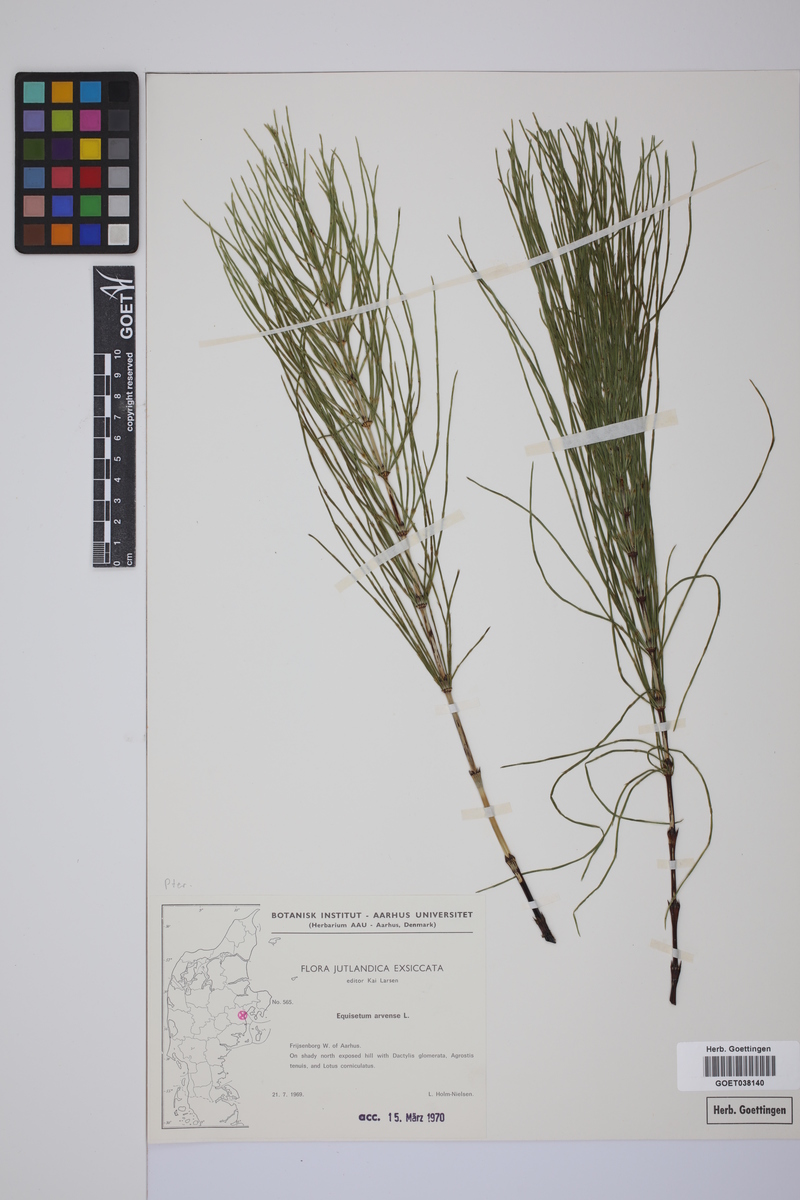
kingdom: Plantae
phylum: Tracheophyta
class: Polypodiopsida
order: Equisetales
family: Equisetaceae
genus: Equisetum
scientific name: Equisetum arvense
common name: Field horsetail
